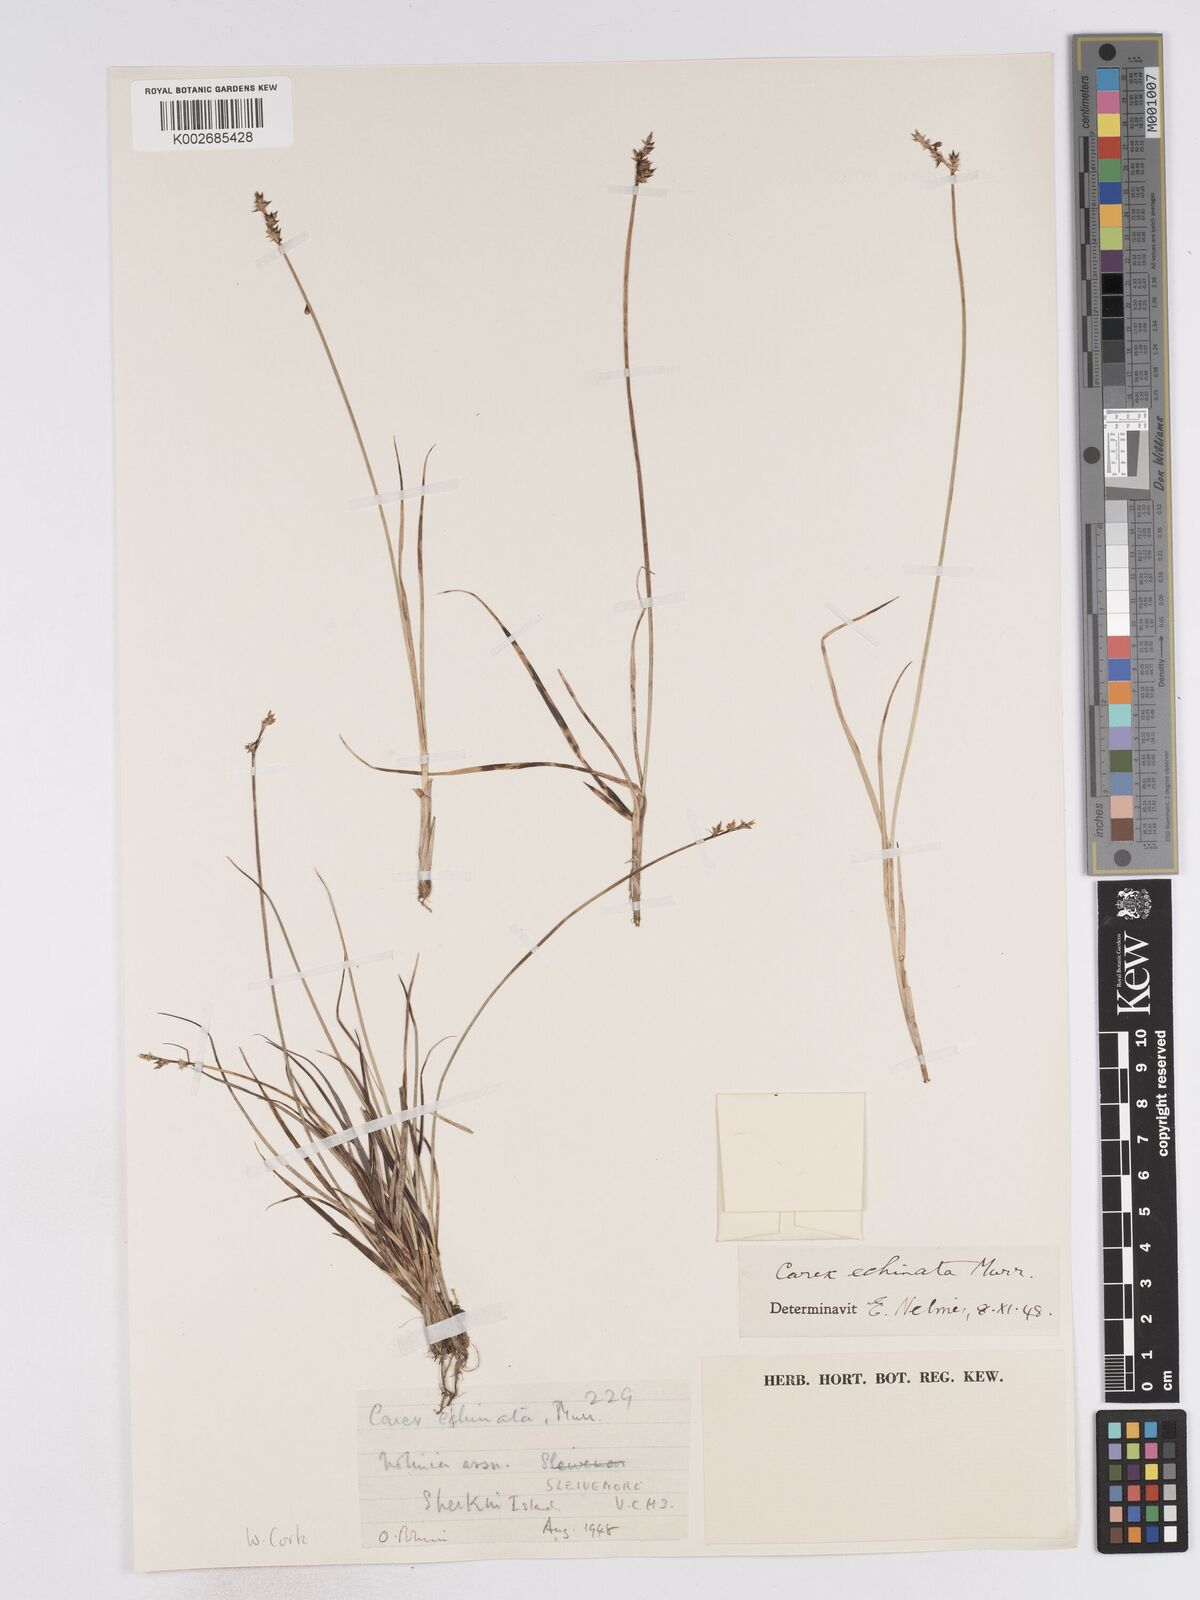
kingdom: Plantae
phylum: Tracheophyta
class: Liliopsida
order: Poales
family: Cyperaceae
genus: Carex
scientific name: Carex echinata
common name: Star sedge
